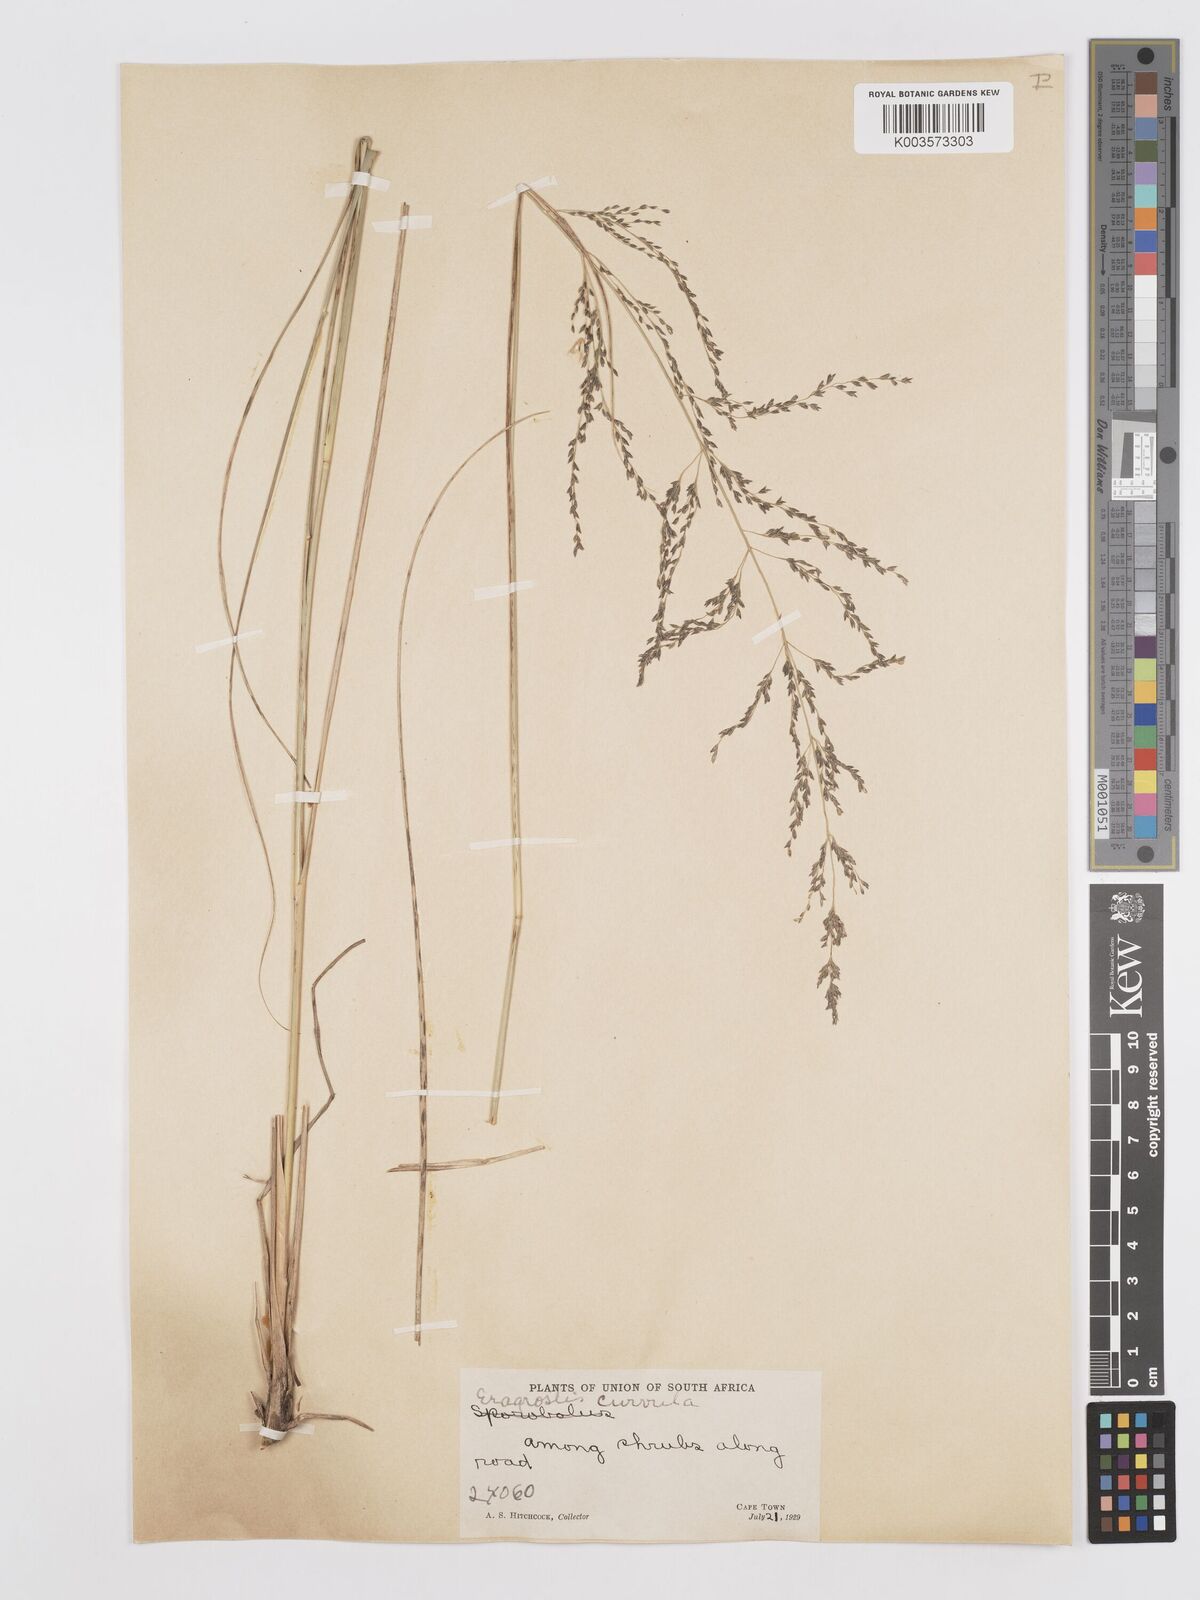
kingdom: Plantae
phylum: Tracheophyta
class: Liliopsida
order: Poales
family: Poaceae
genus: Eragrostis
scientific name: Eragrostis curvula
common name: African love-grass
